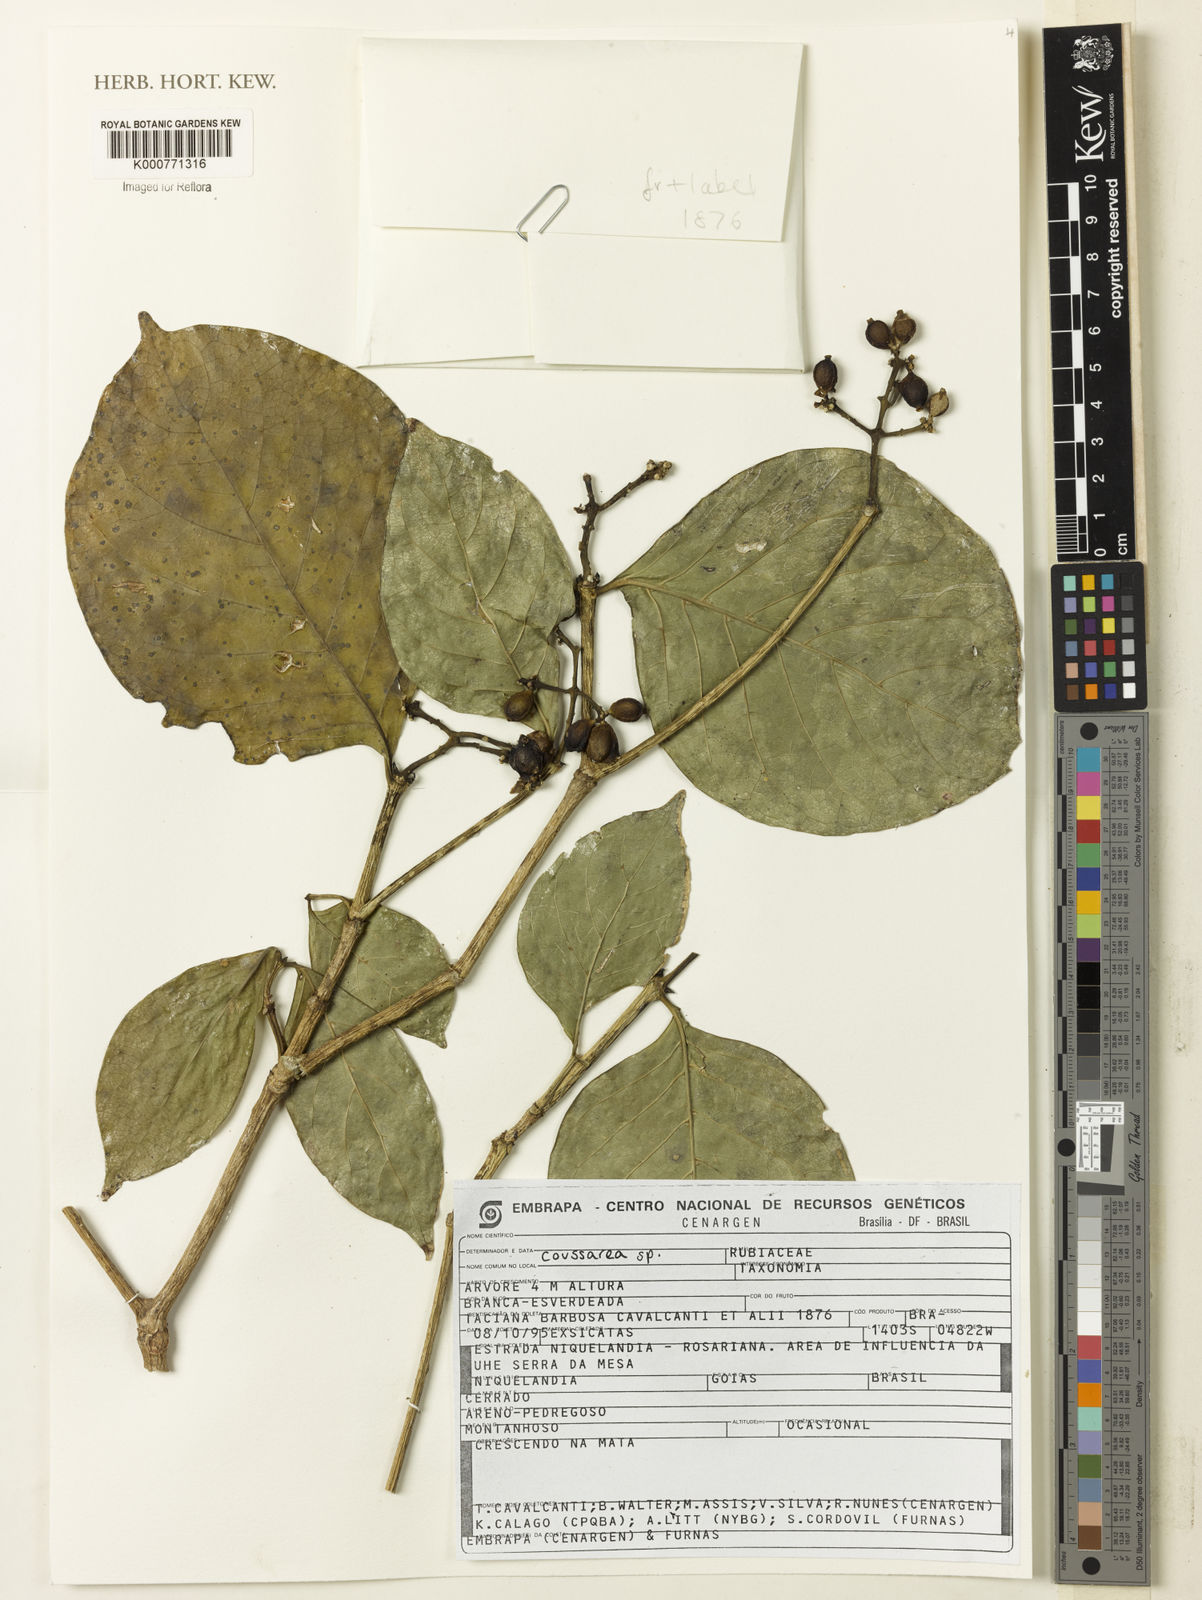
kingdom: Plantae
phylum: Tracheophyta
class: Magnoliopsida
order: Gentianales
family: Rubiaceae
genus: Coussarea
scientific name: Coussarea
